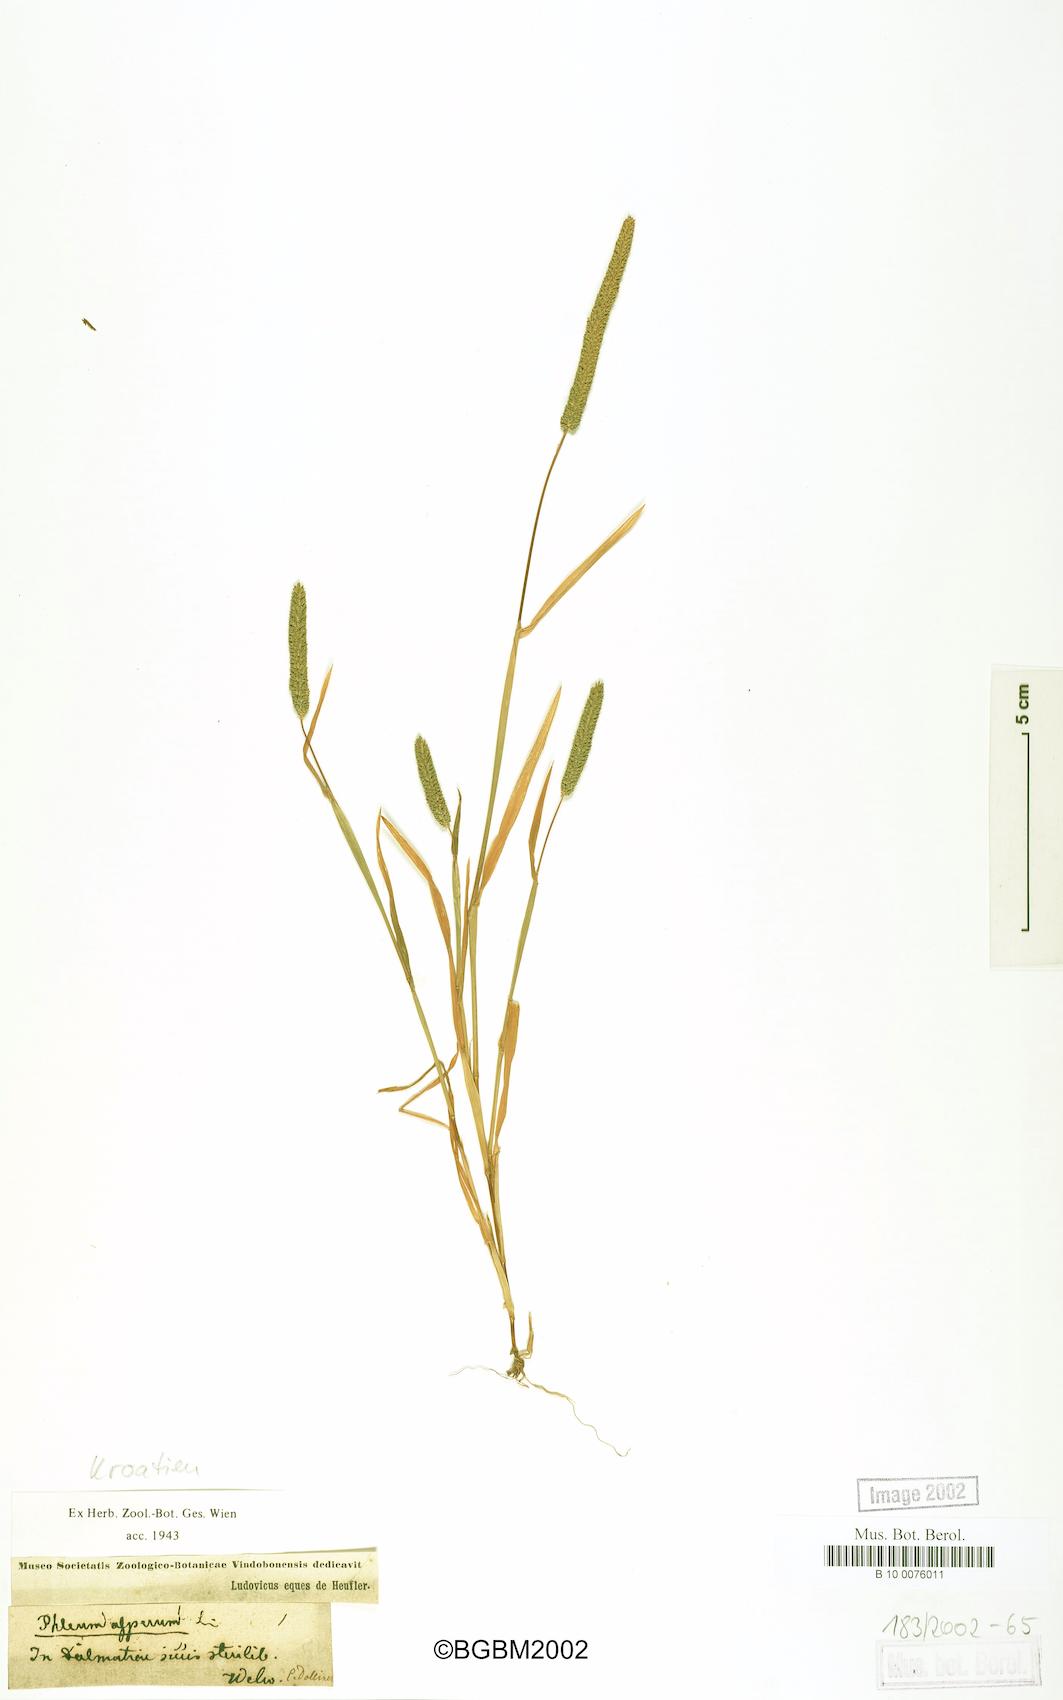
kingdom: Plantae
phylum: Tracheophyta
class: Liliopsida
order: Poales
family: Poaceae
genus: Phleum
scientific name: Phleum alpinum
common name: Alpine cat's-tail
